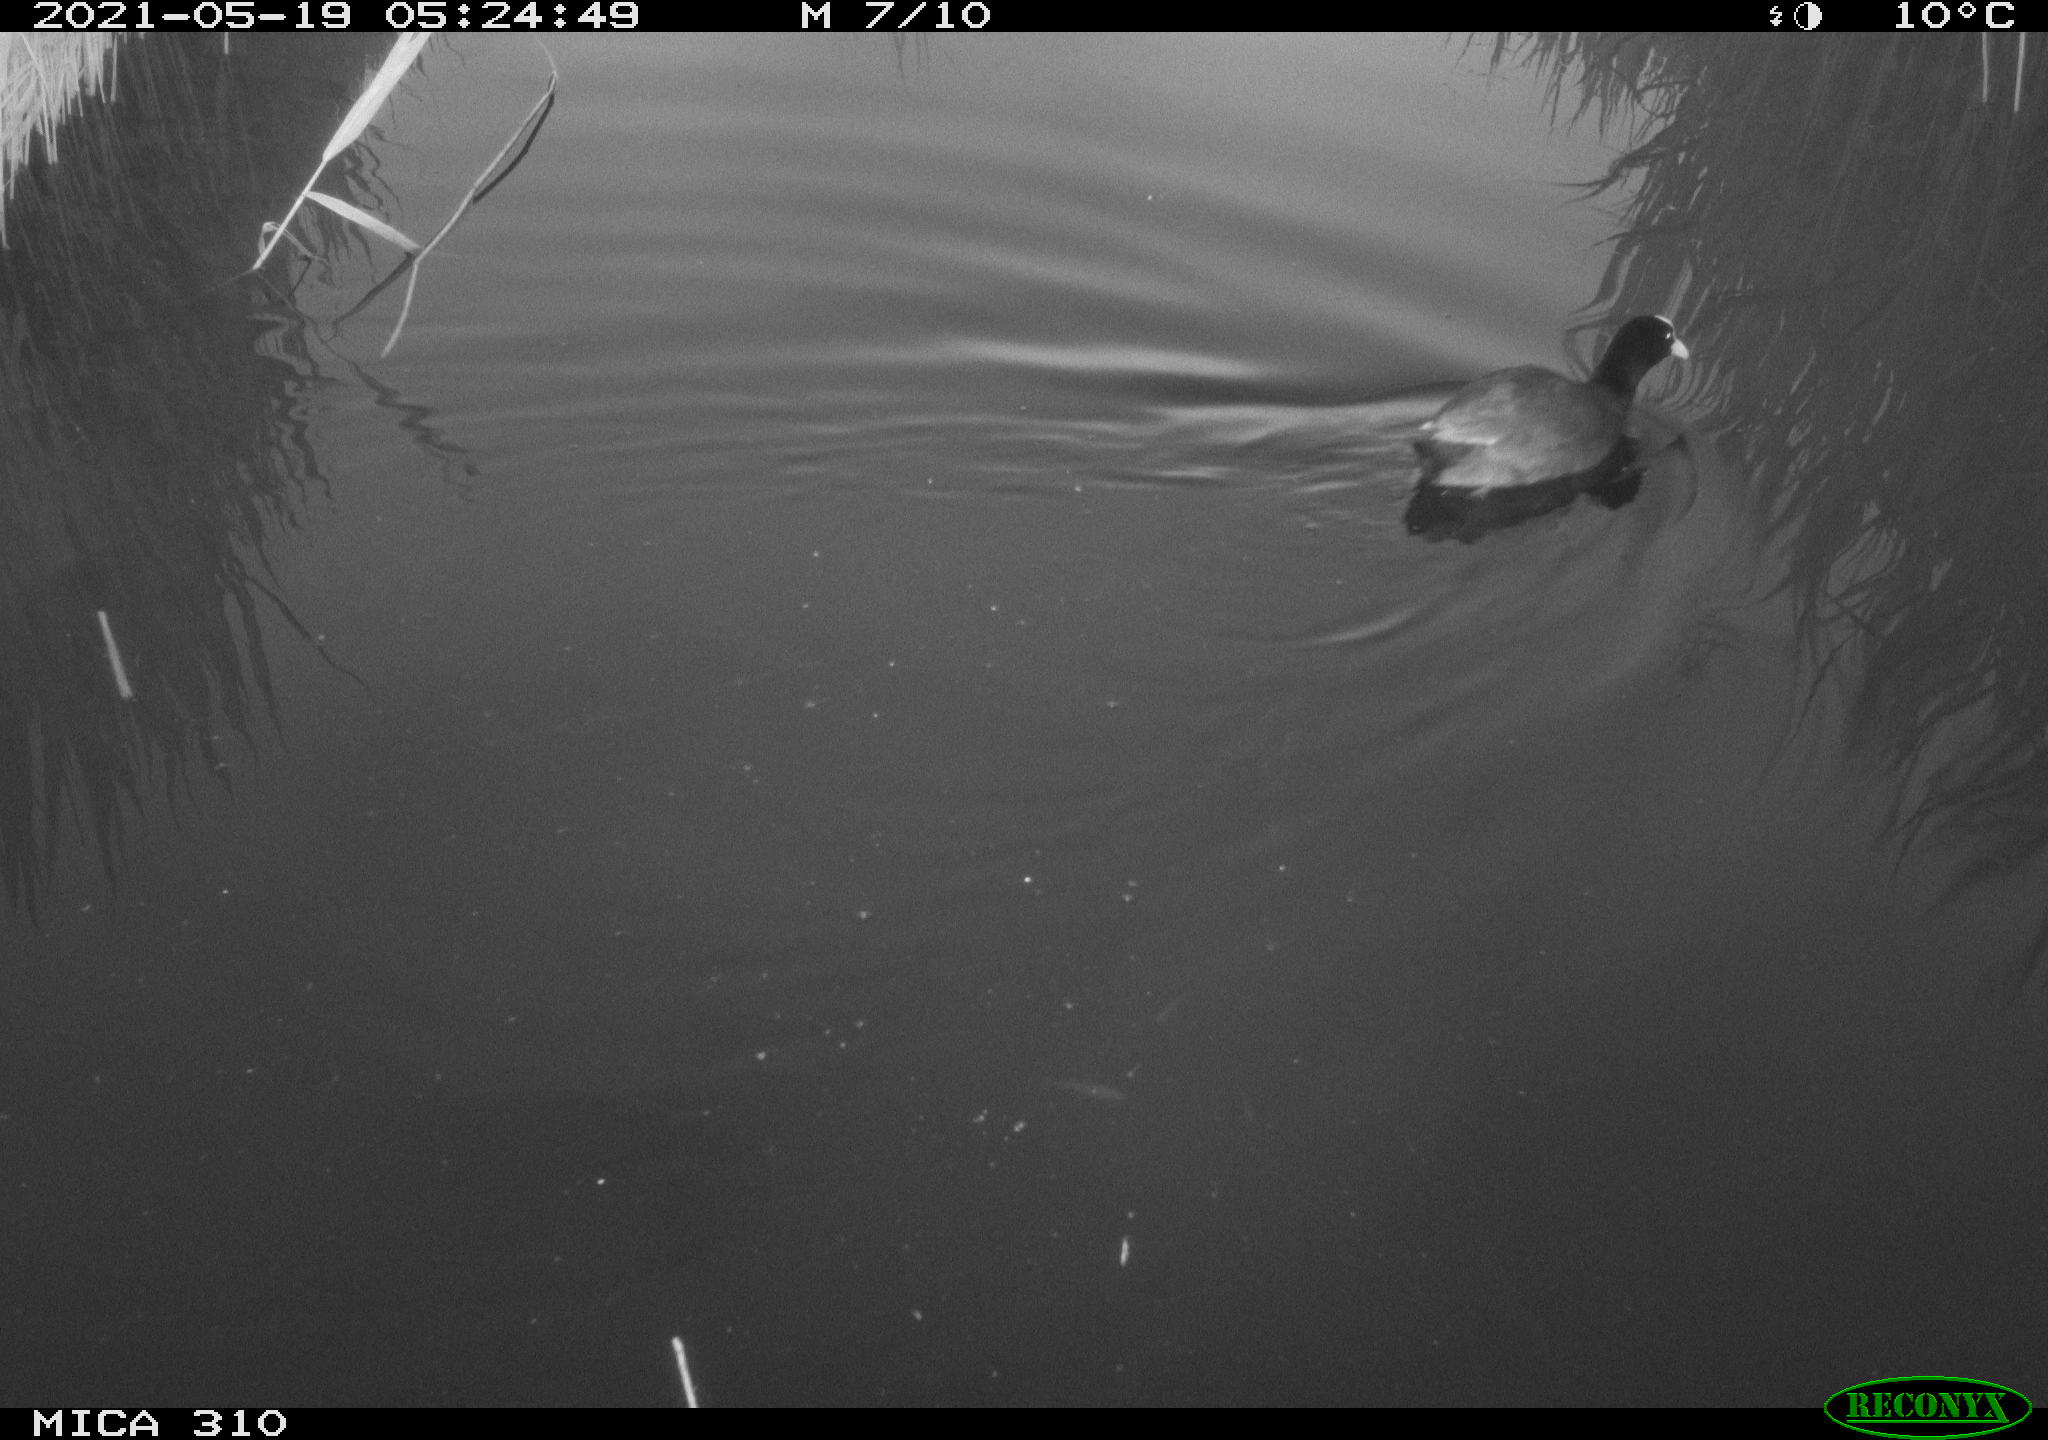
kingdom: Animalia
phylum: Chordata
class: Aves
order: Gruiformes
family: Rallidae
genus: Fulica
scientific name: Fulica atra
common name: Eurasian coot
